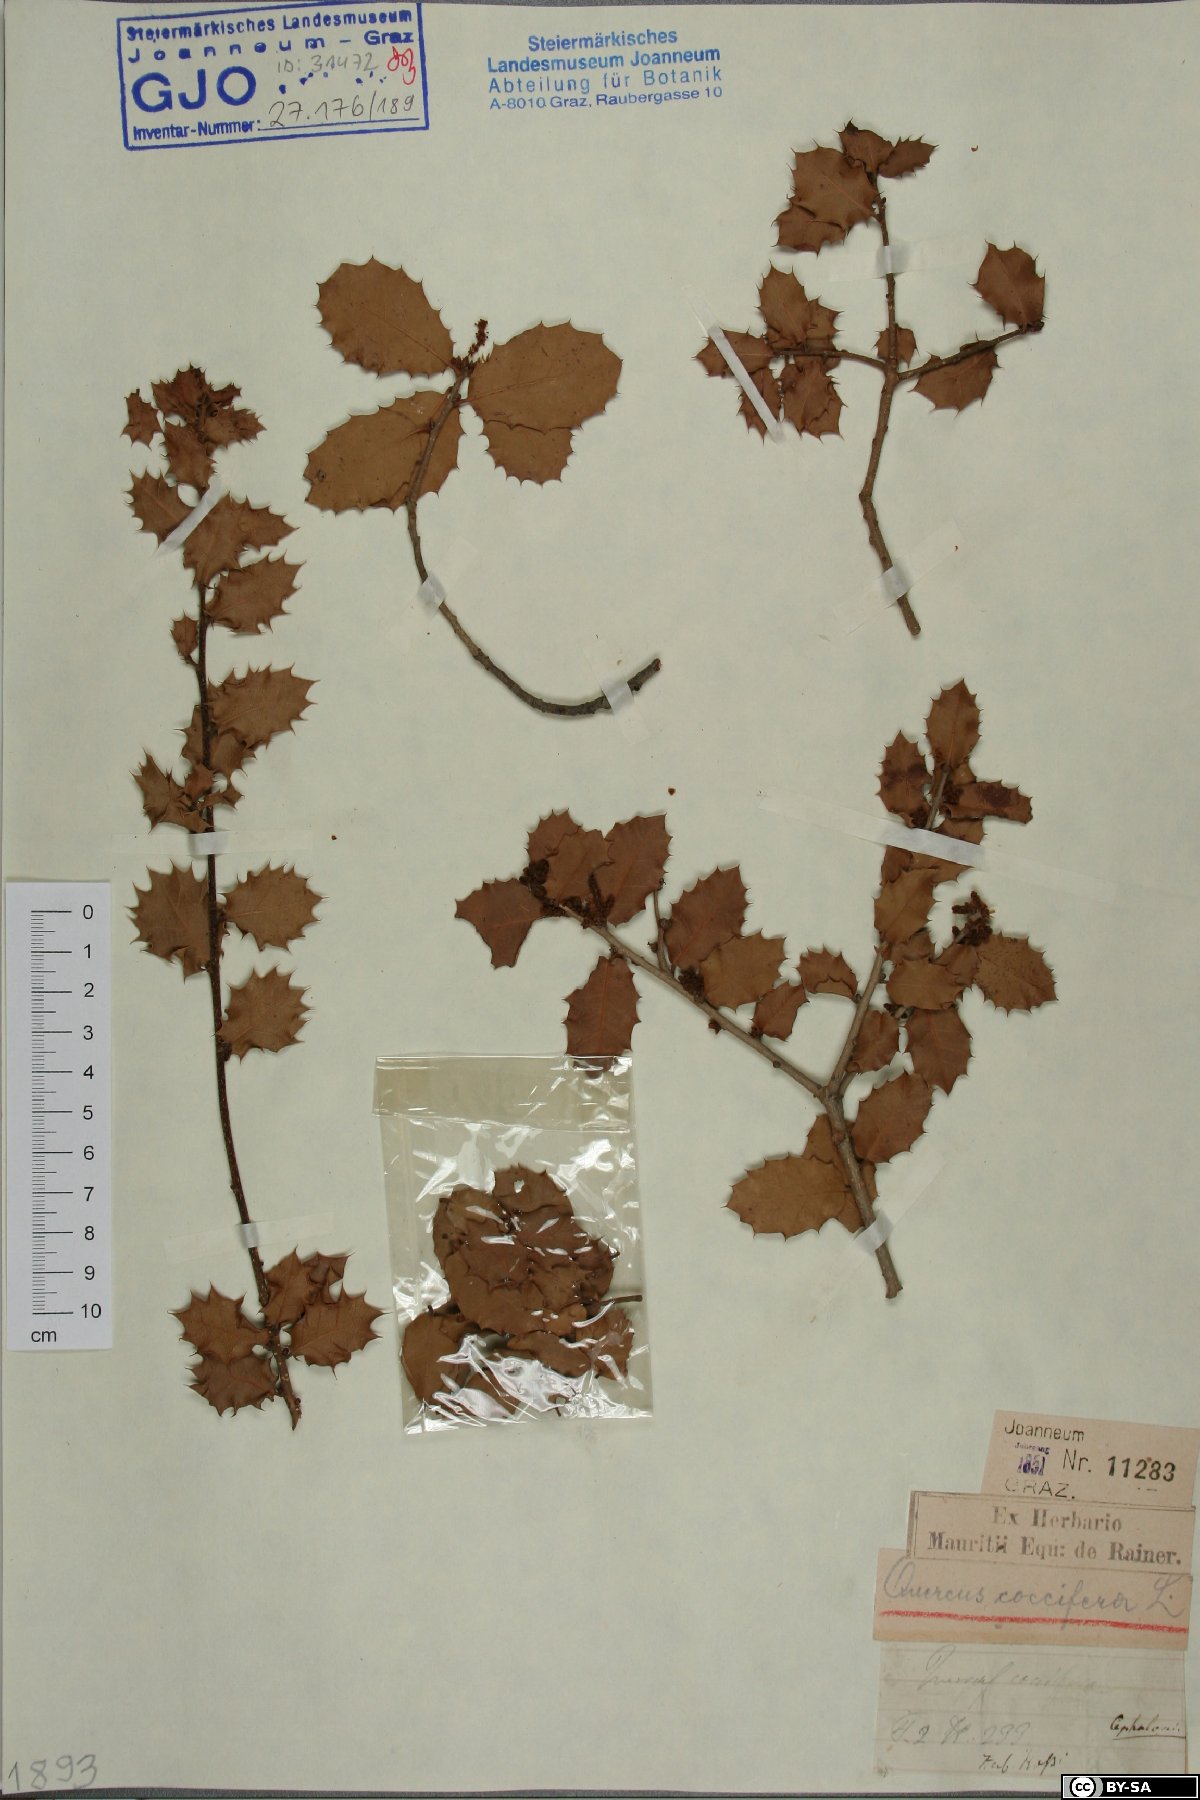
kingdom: Plantae
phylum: Tracheophyta
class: Magnoliopsida
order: Fagales
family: Fagaceae
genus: Quercus
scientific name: Quercus coccifera
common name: Kermes oak
